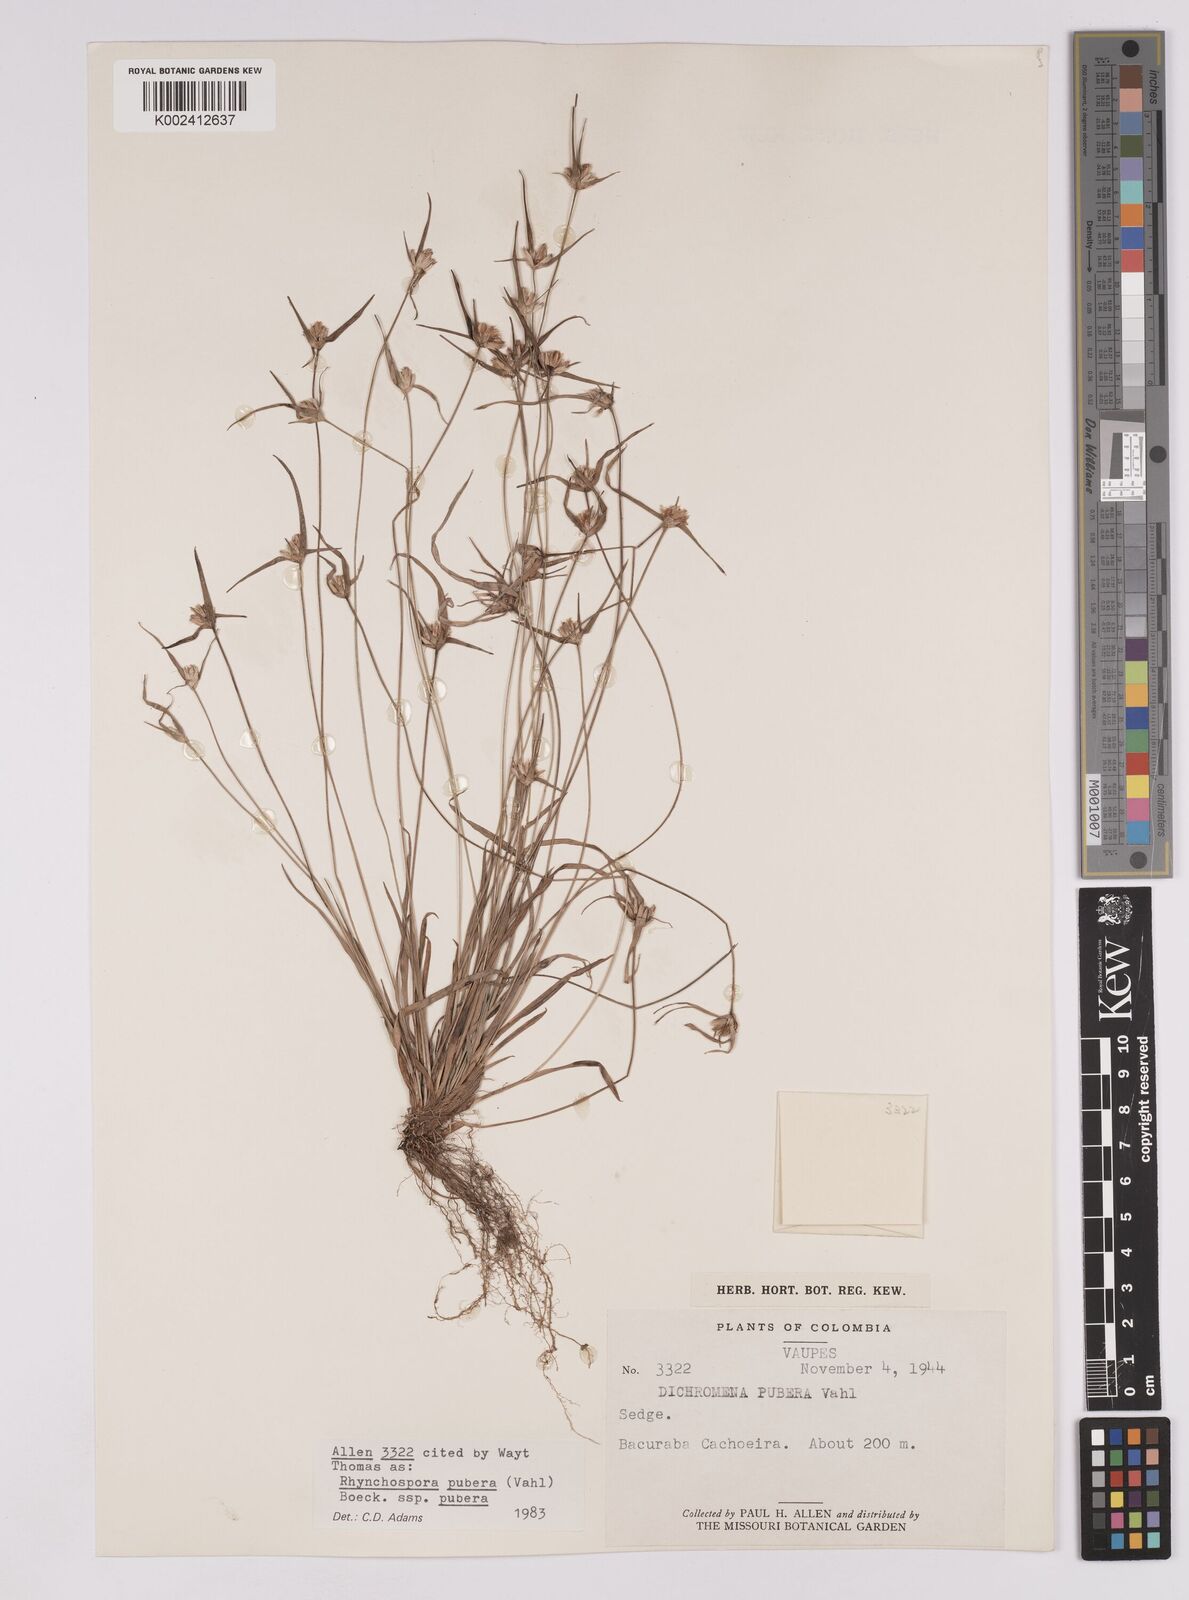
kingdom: Plantae
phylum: Tracheophyta
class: Liliopsida
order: Poales
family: Cyperaceae
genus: Rhynchospora
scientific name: Rhynchospora pubera
